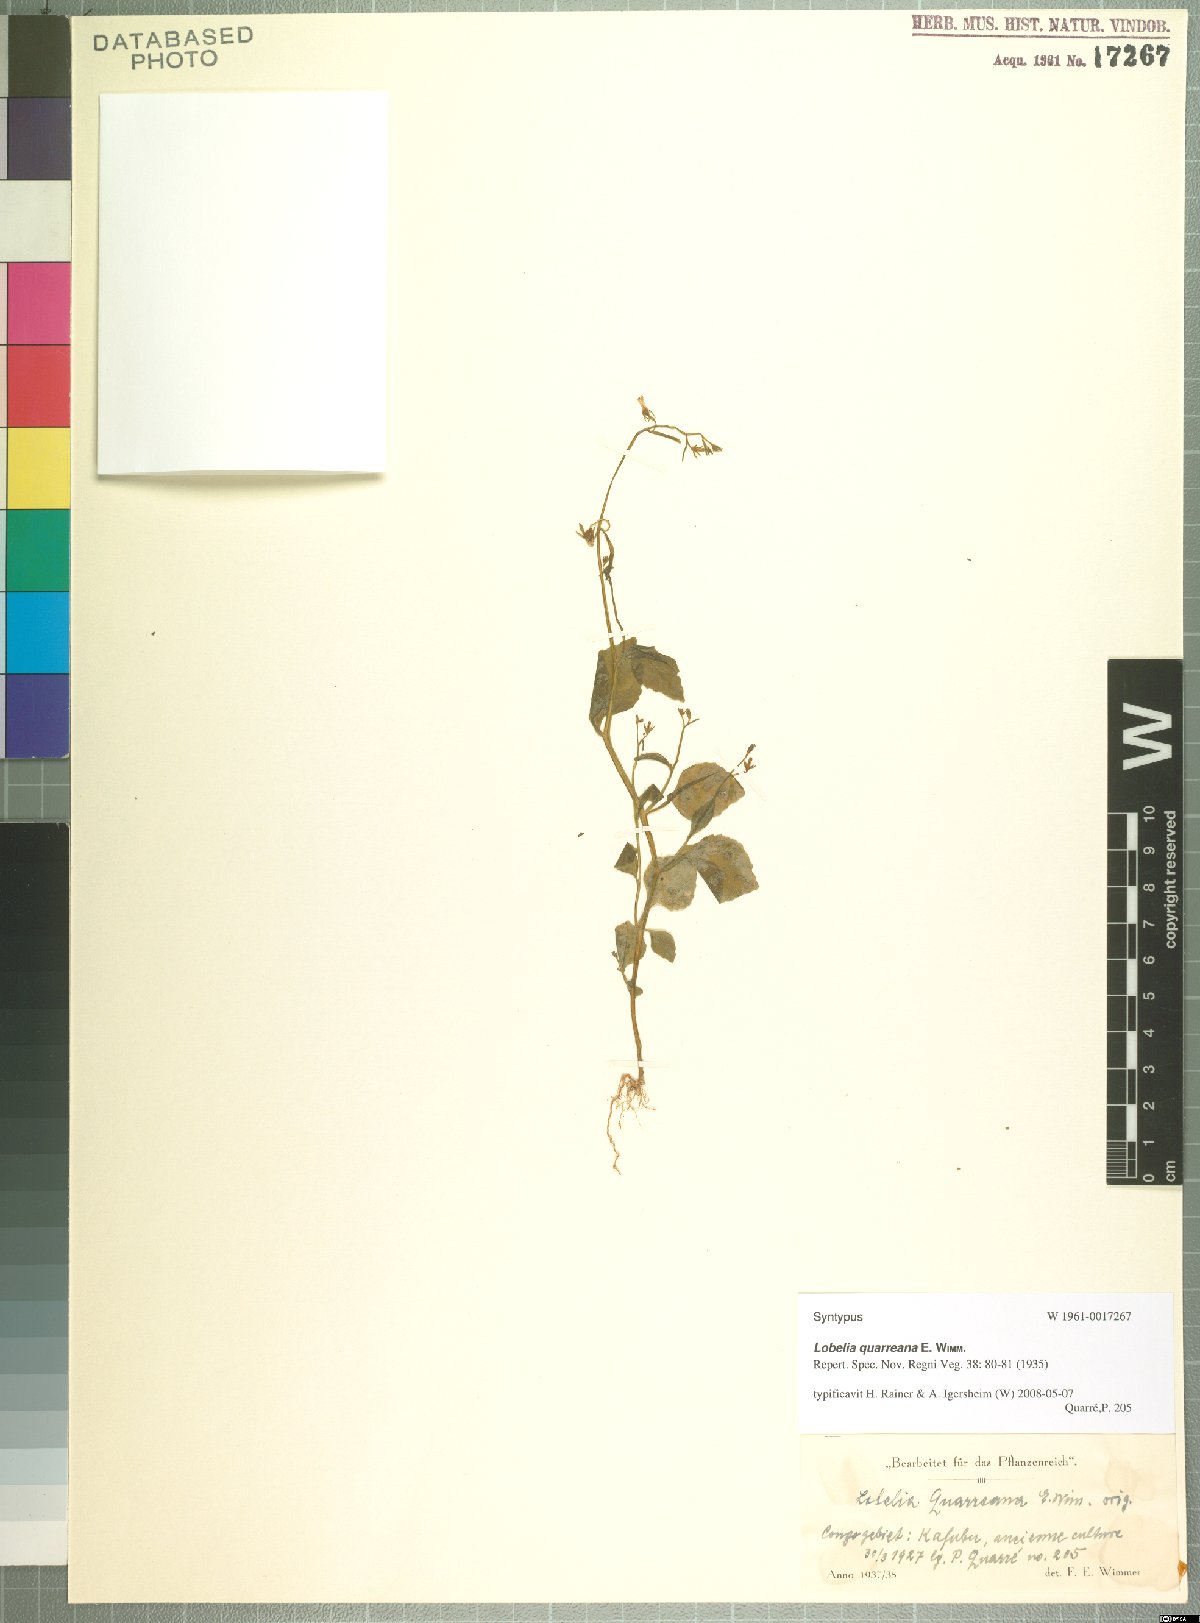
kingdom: Plantae
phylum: Tracheophyta
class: Magnoliopsida
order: Asterales
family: Campanulaceae
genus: Lobelia
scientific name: Lobelia quarreana
